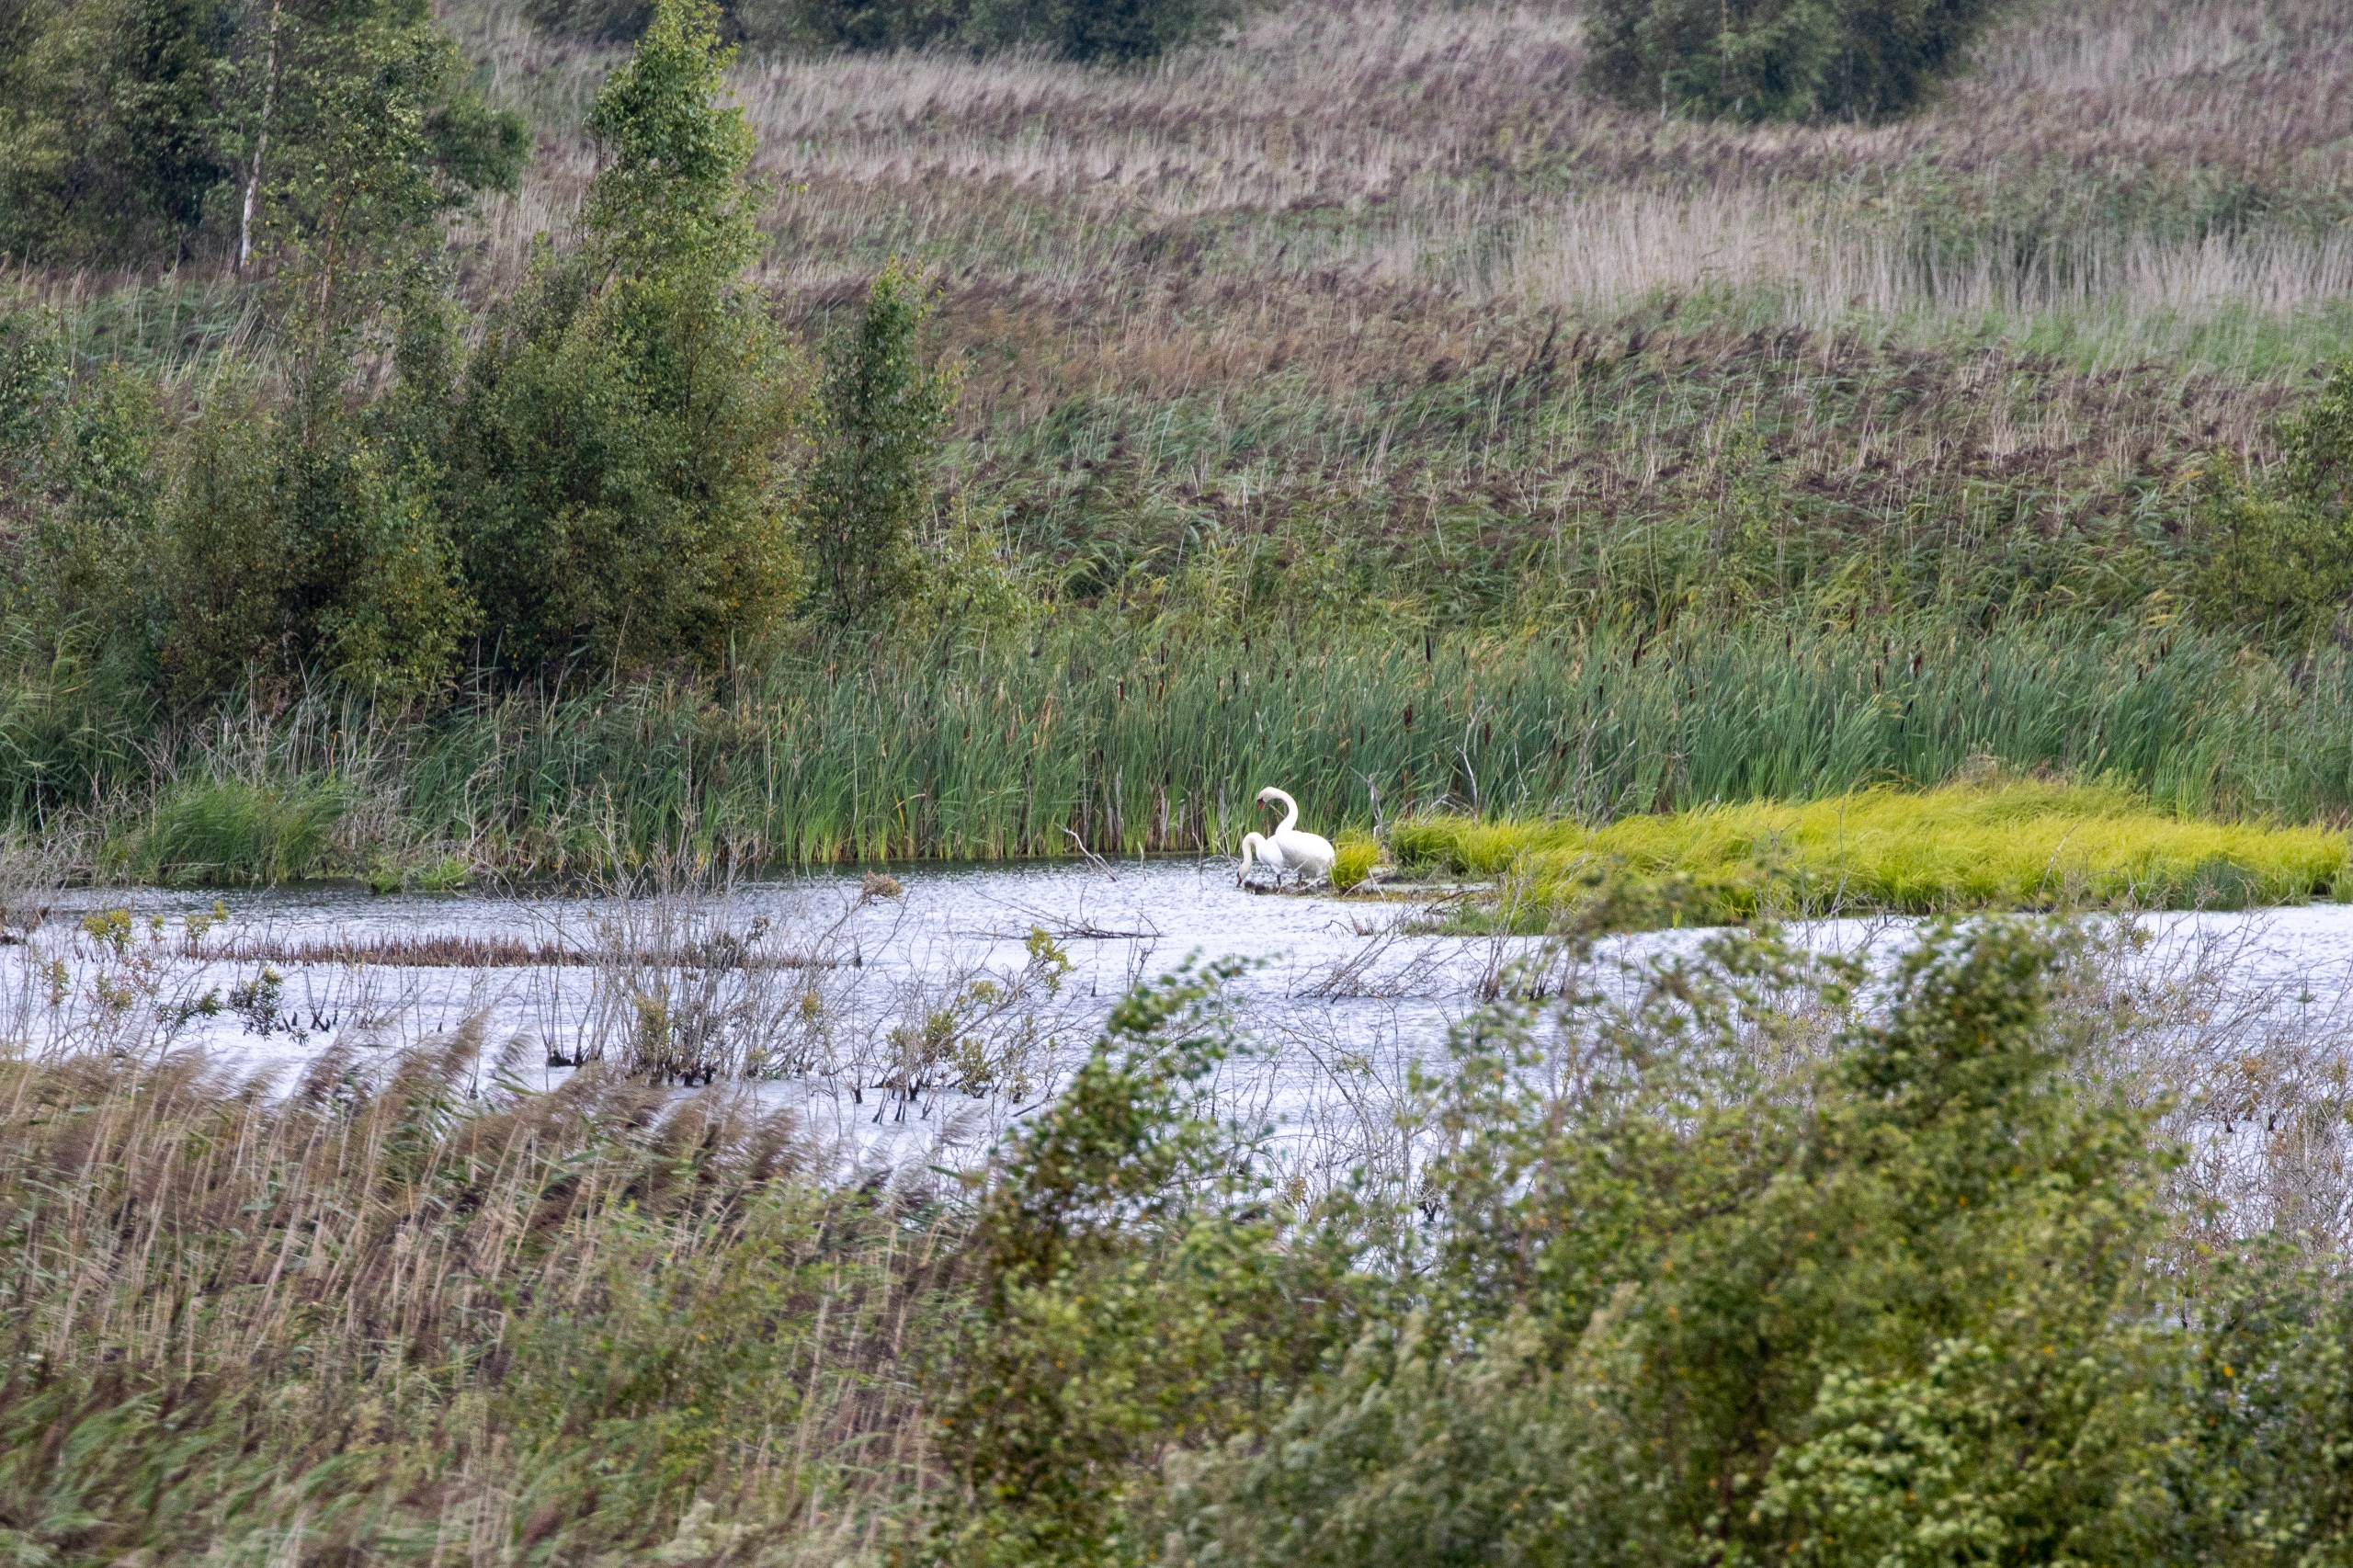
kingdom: Animalia
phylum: Chordata
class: Aves
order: Anseriformes
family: Anatidae
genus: Cygnus
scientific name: Cygnus olor
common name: Knopsvane
